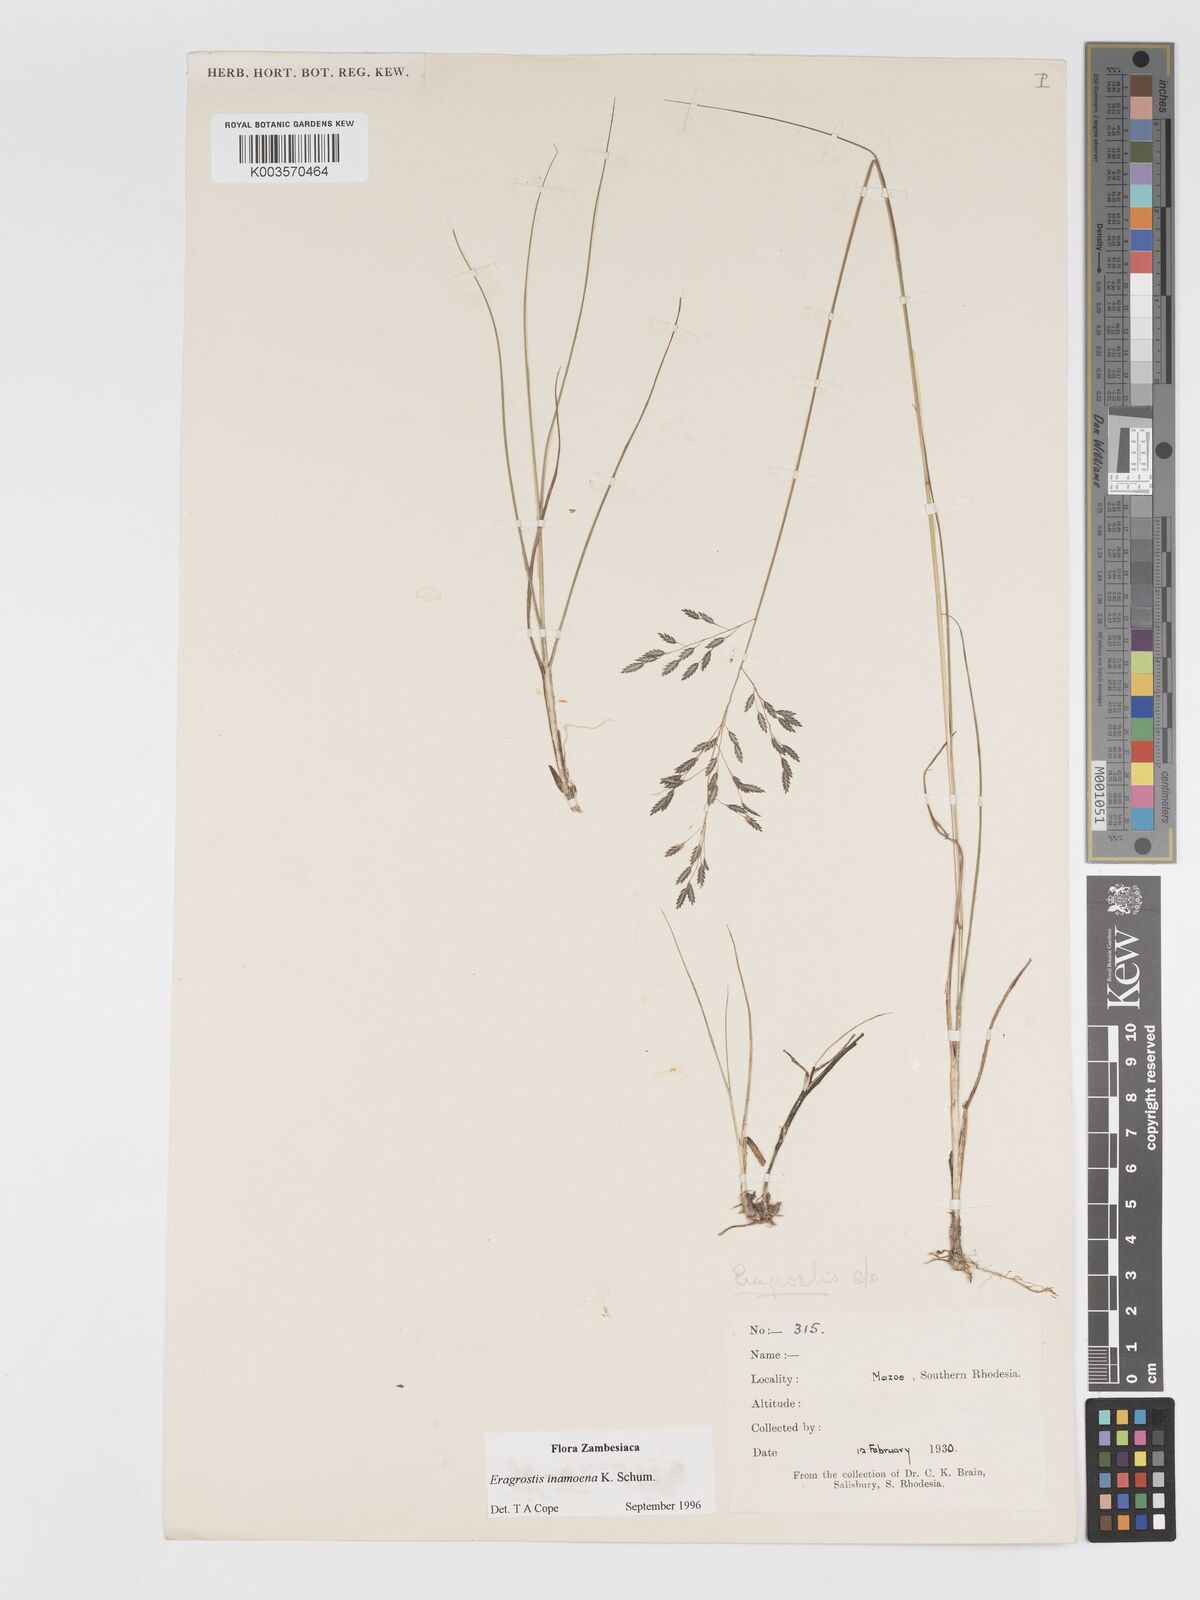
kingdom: Plantae
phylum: Tracheophyta
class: Liliopsida
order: Poales
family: Poaceae
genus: Eragrostis
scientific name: Eragrostis inamoena
